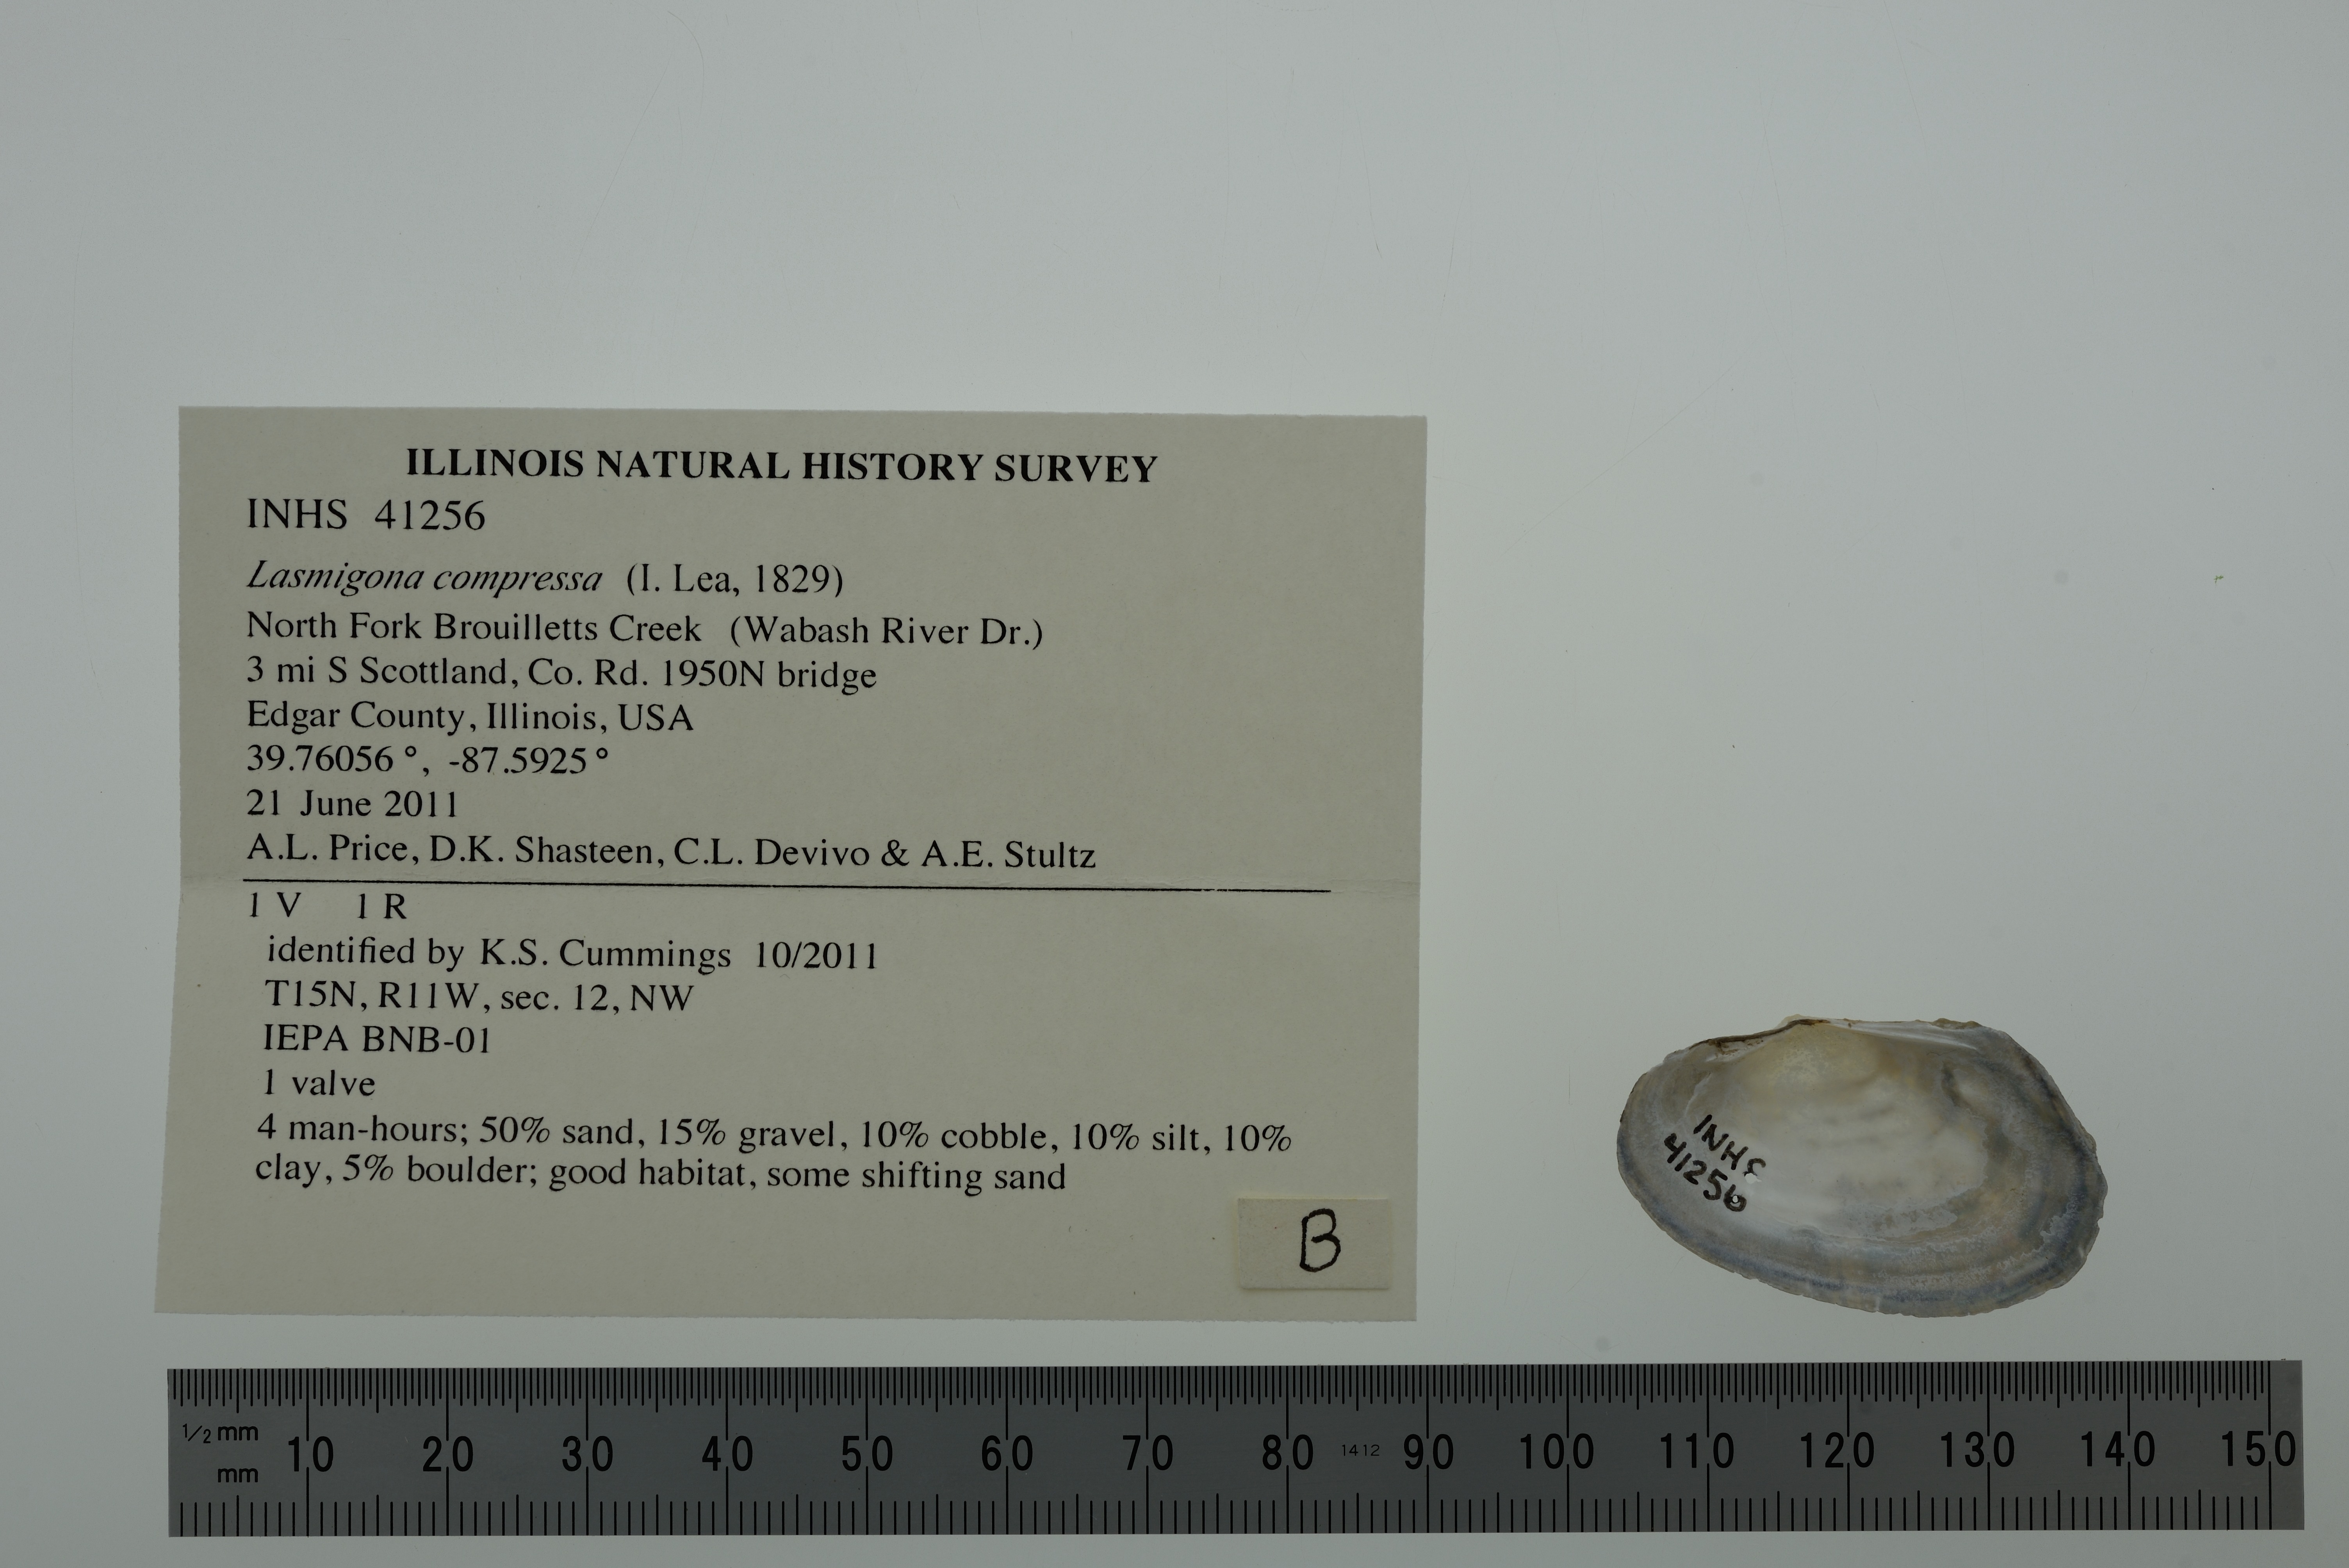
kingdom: Animalia
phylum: Mollusca
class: Bivalvia
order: Unionida
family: Unionidae
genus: Lasmigona
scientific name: Lasmigona compressa
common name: Creek heelsplitter
